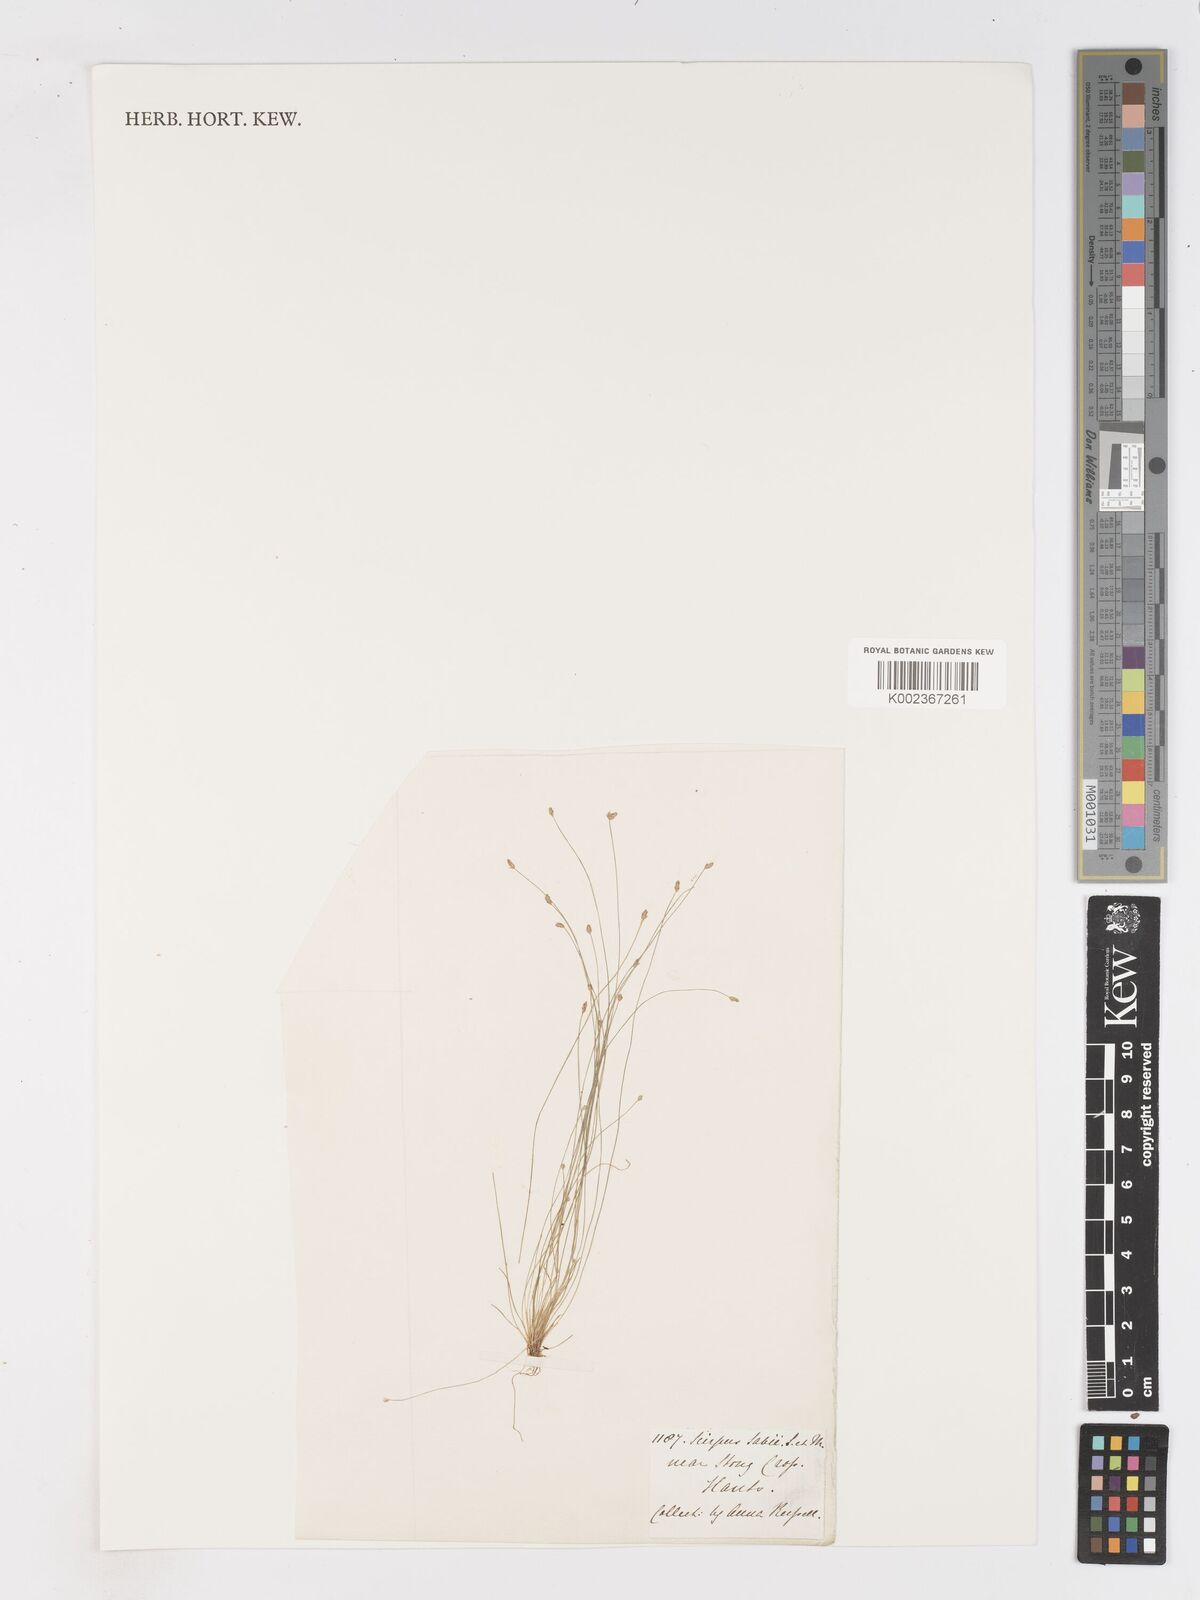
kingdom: Plantae
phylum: Tracheophyta
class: Liliopsida
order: Poales
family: Cyperaceae
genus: Isolepis
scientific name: Isolepis cernua
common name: Slender club-rush
